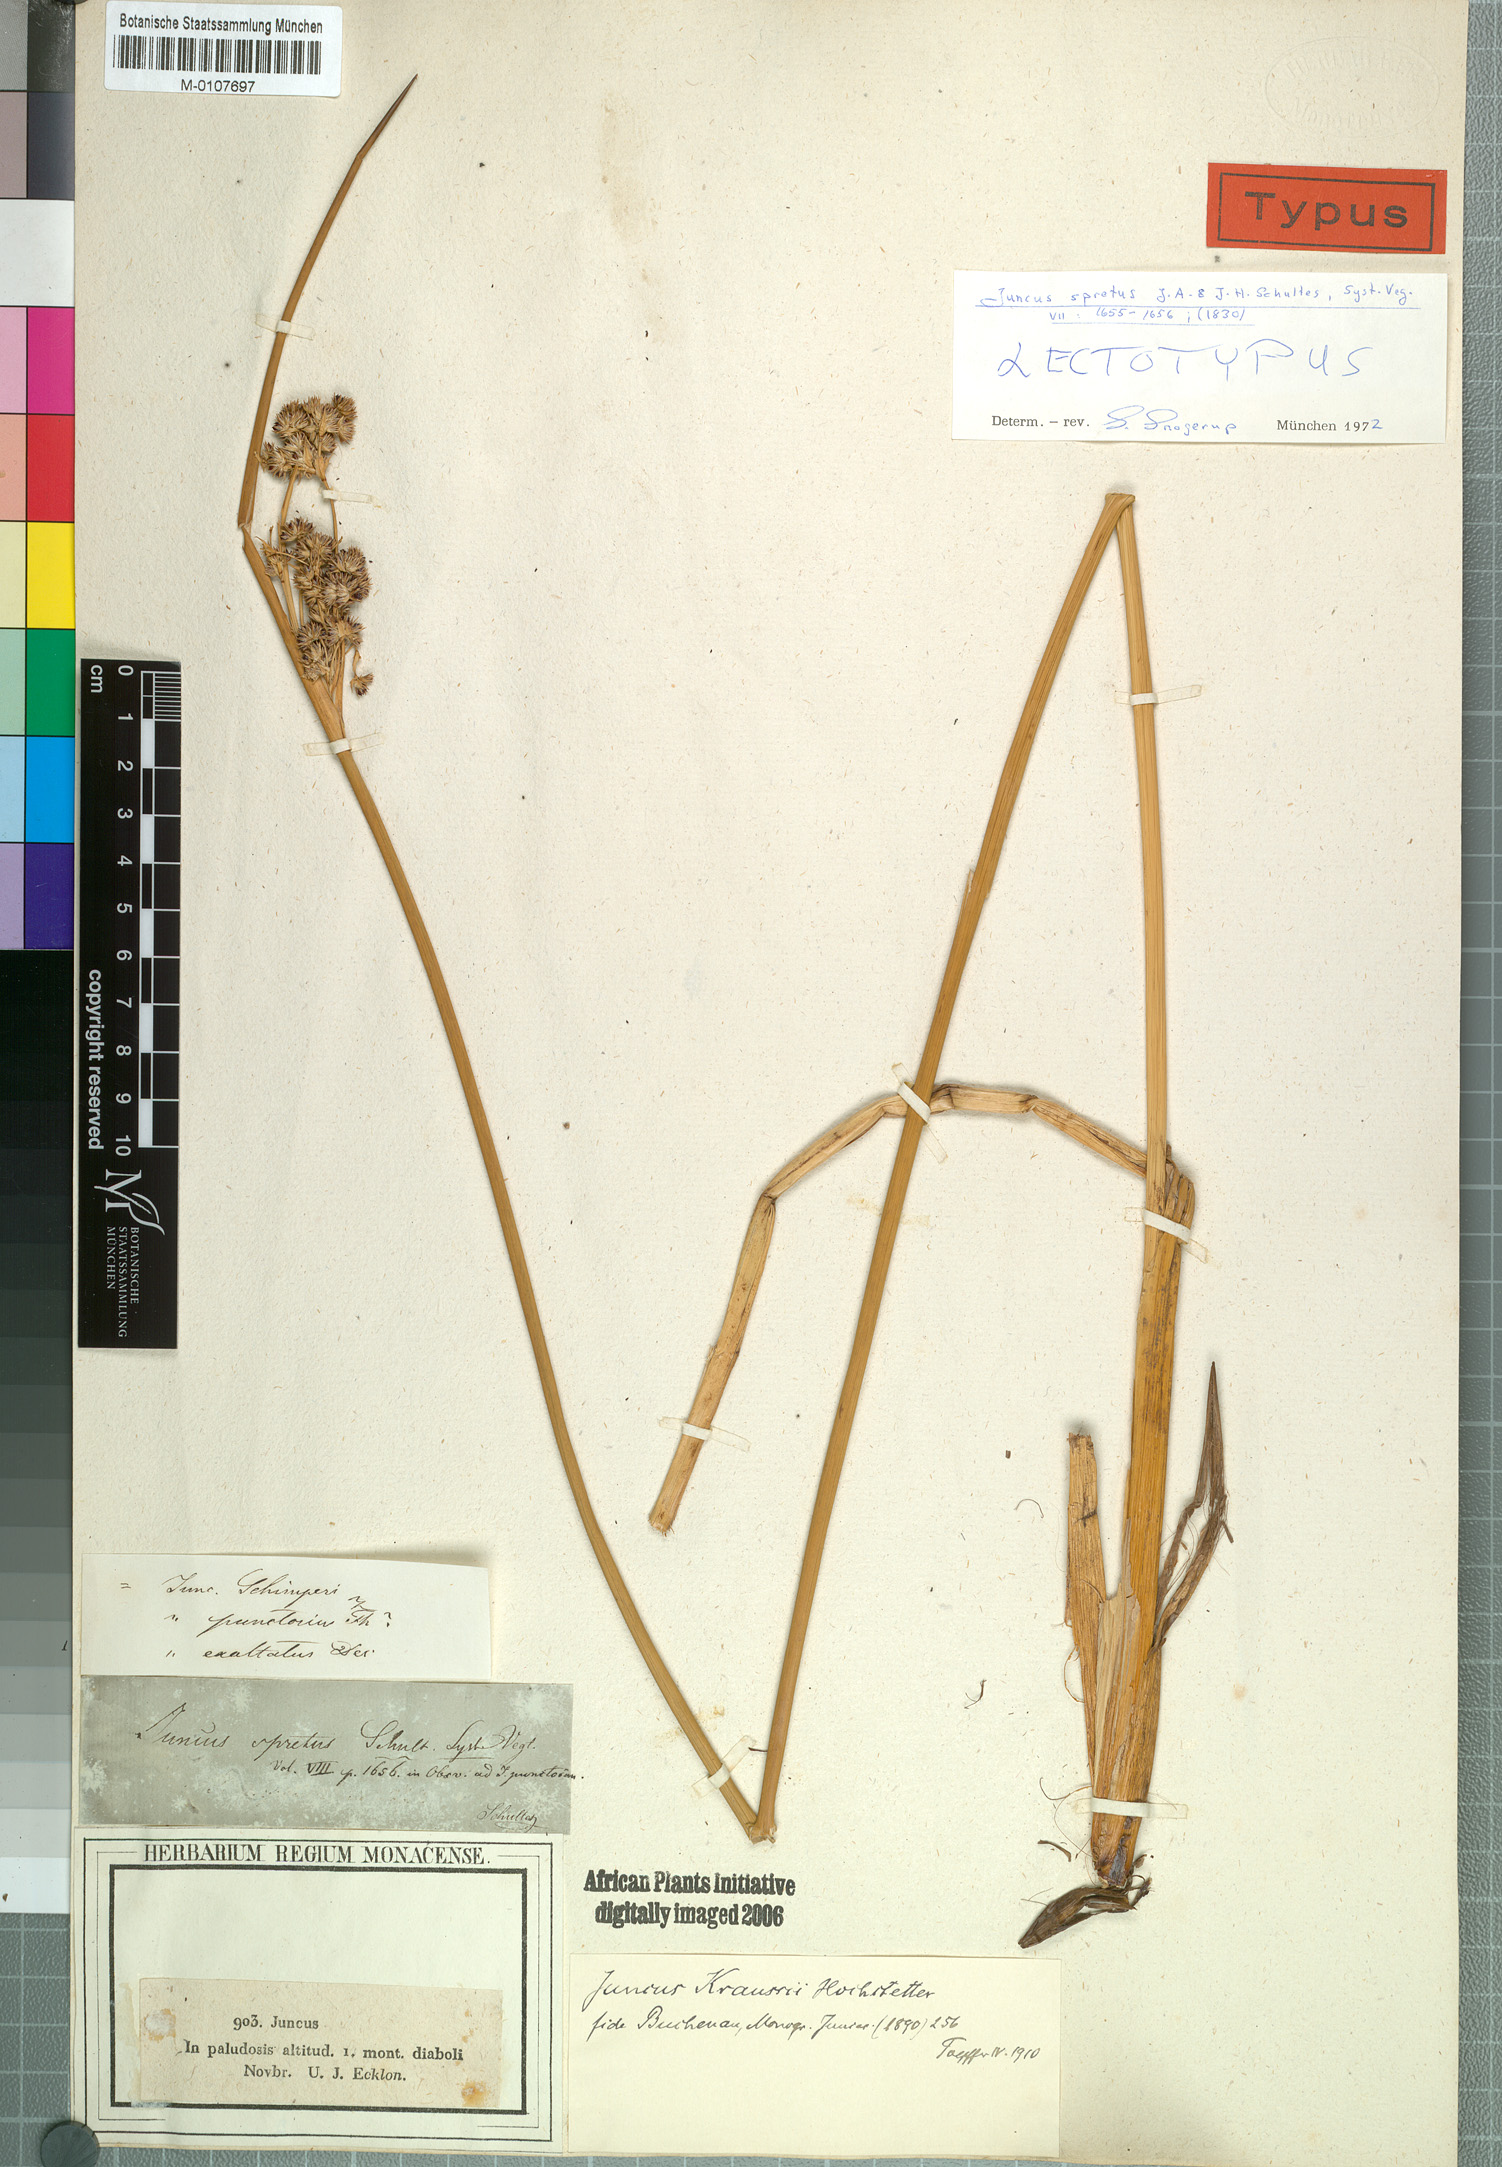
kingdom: Plantae
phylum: Tracheophyta
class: Liliopsida
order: Poales
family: Juncaceae
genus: Juncus
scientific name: Juncus kraussii
